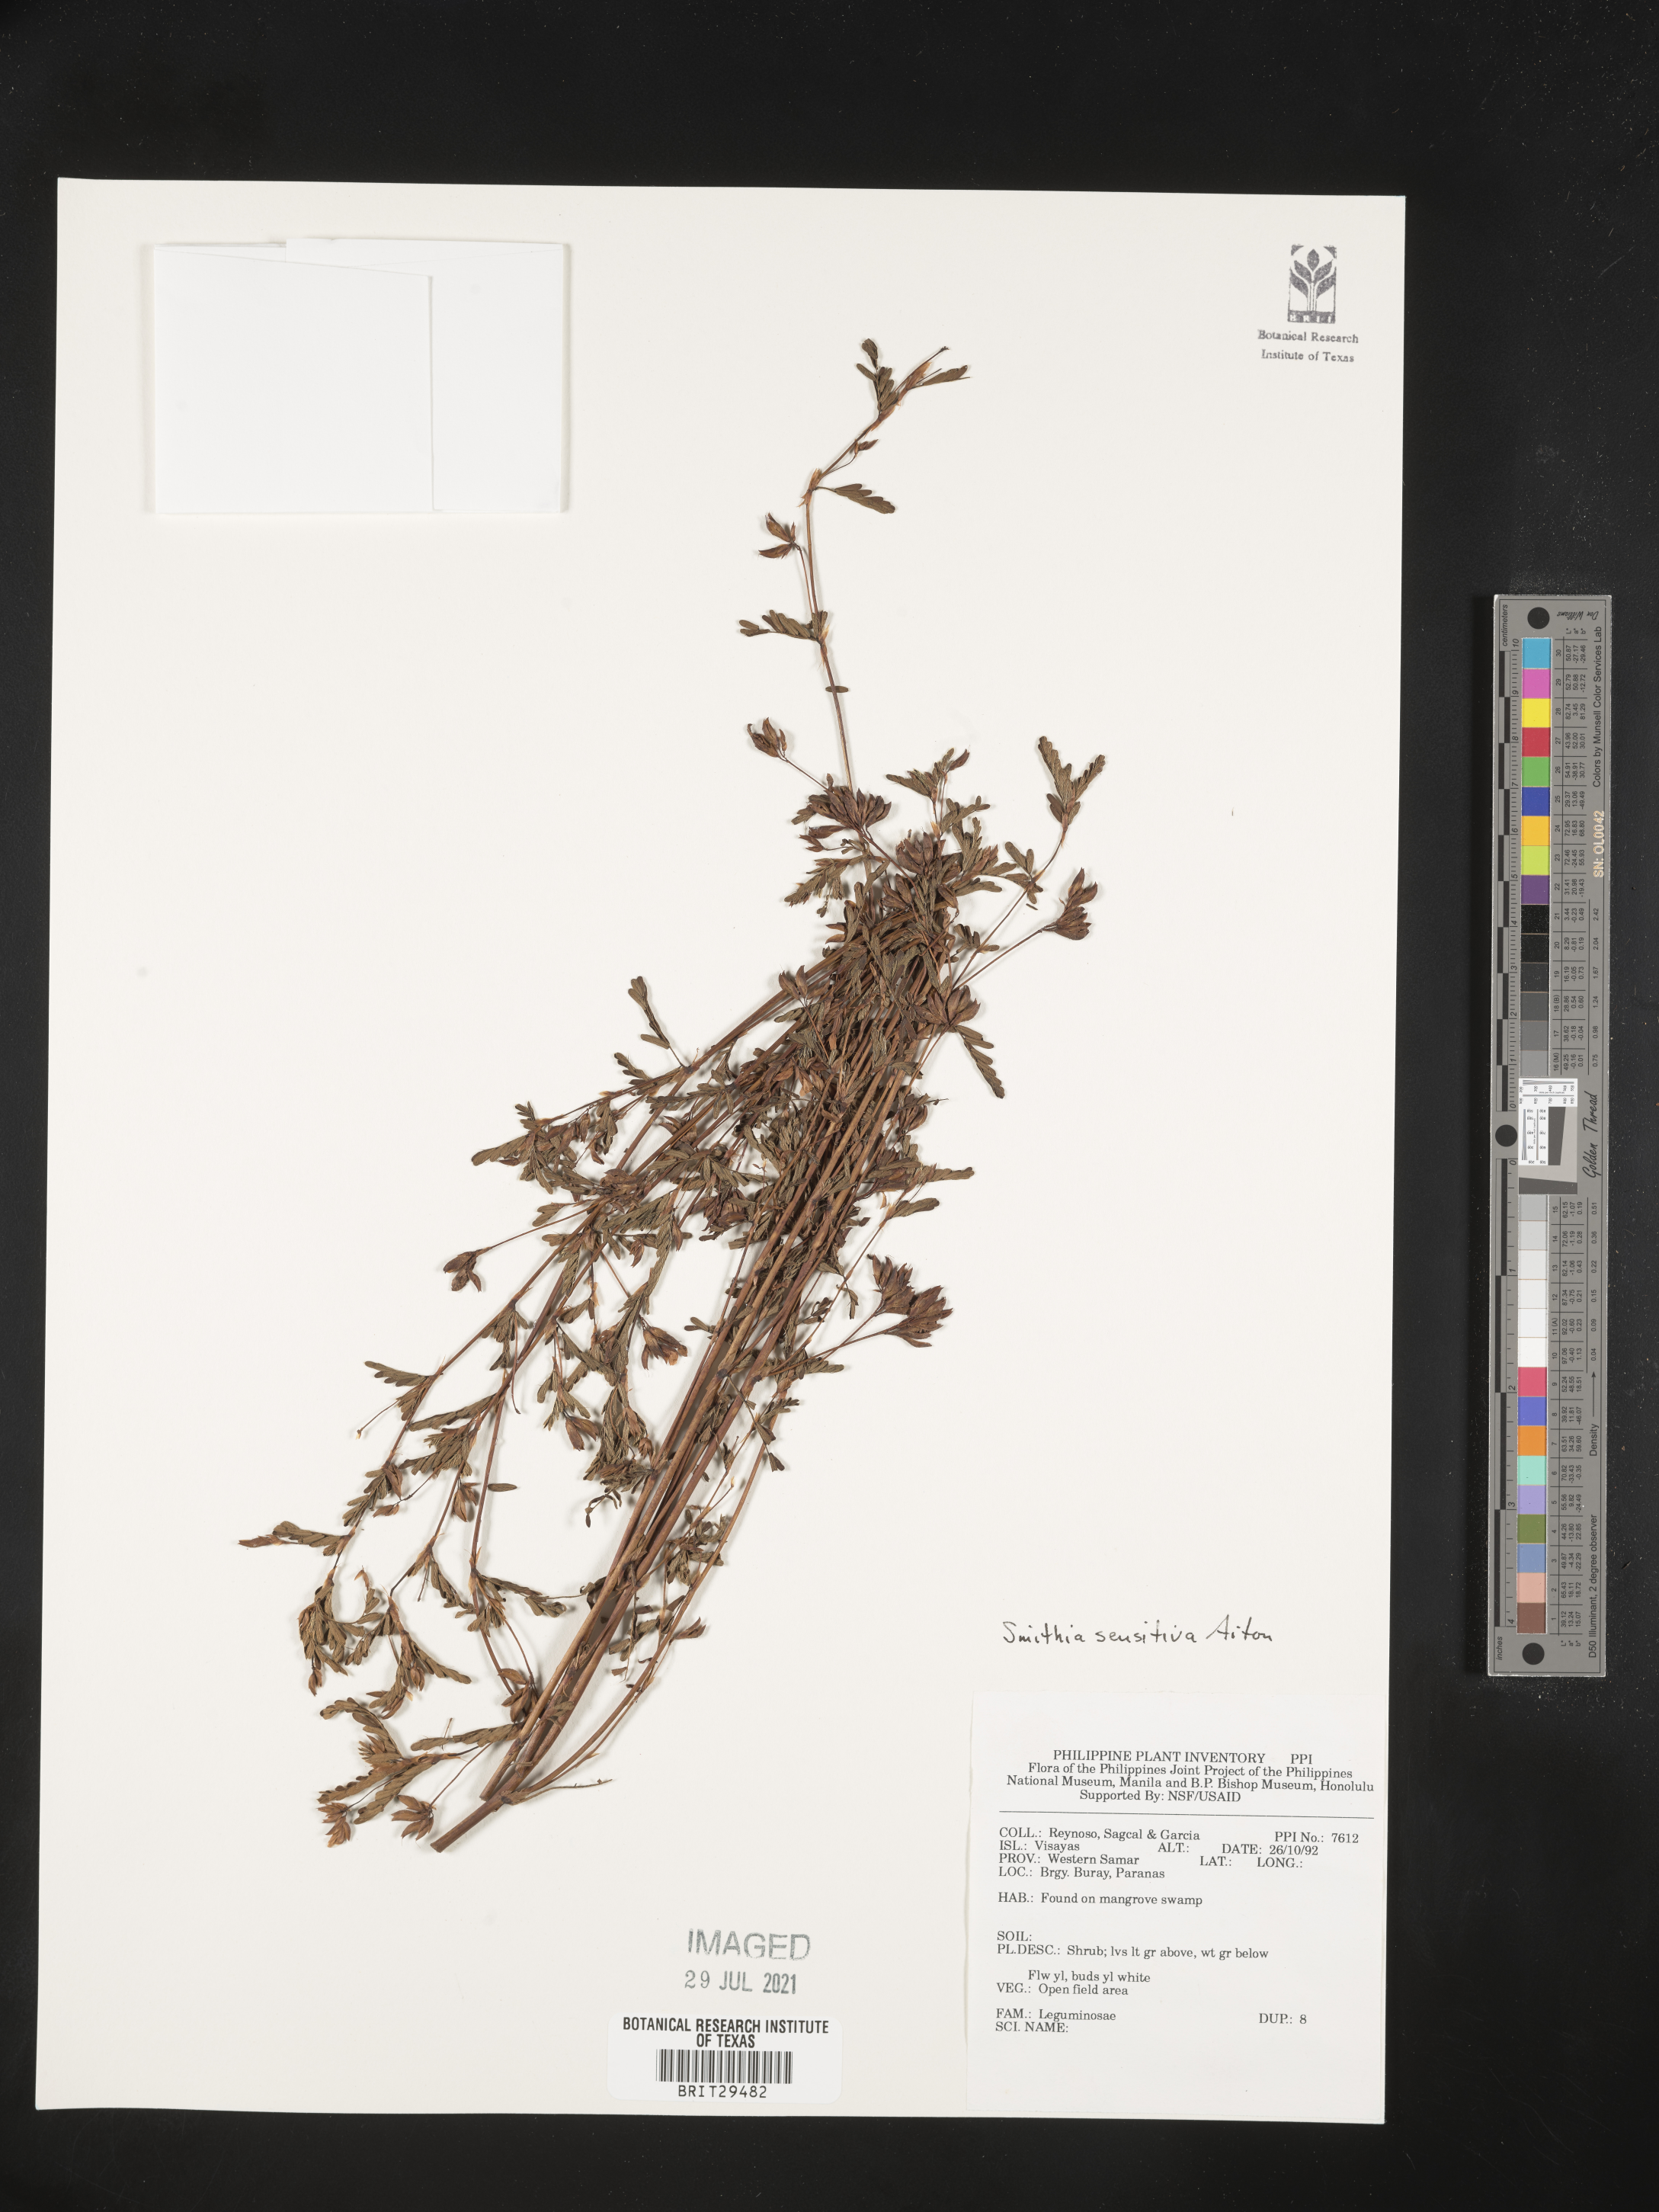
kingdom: Plantae
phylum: Tracheophyta
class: Magnoliopsida
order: Fabales
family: Fabaceae
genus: Smithia
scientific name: Smithia sensitiva
